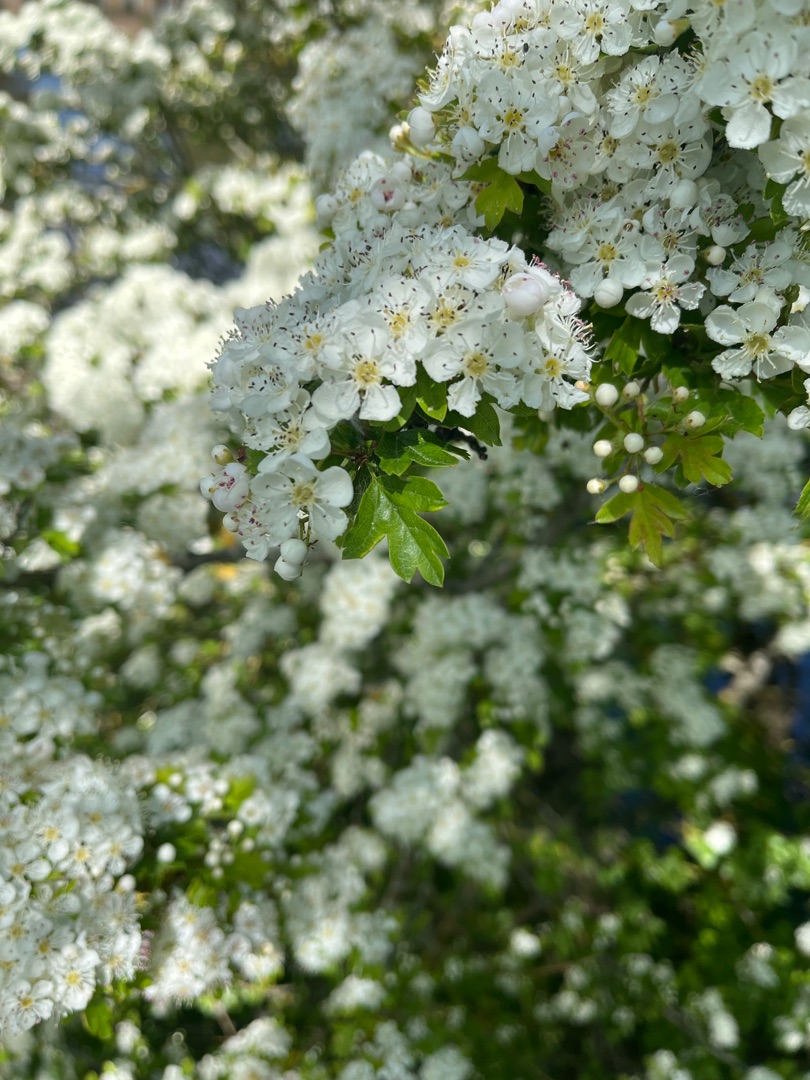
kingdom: Plantae
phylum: Tracheophyta
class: Magnoliopsida
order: Rosales
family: Rosaceae
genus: Crataegus
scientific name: Crataegus monogyna
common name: Engriflet hvidtjørn
